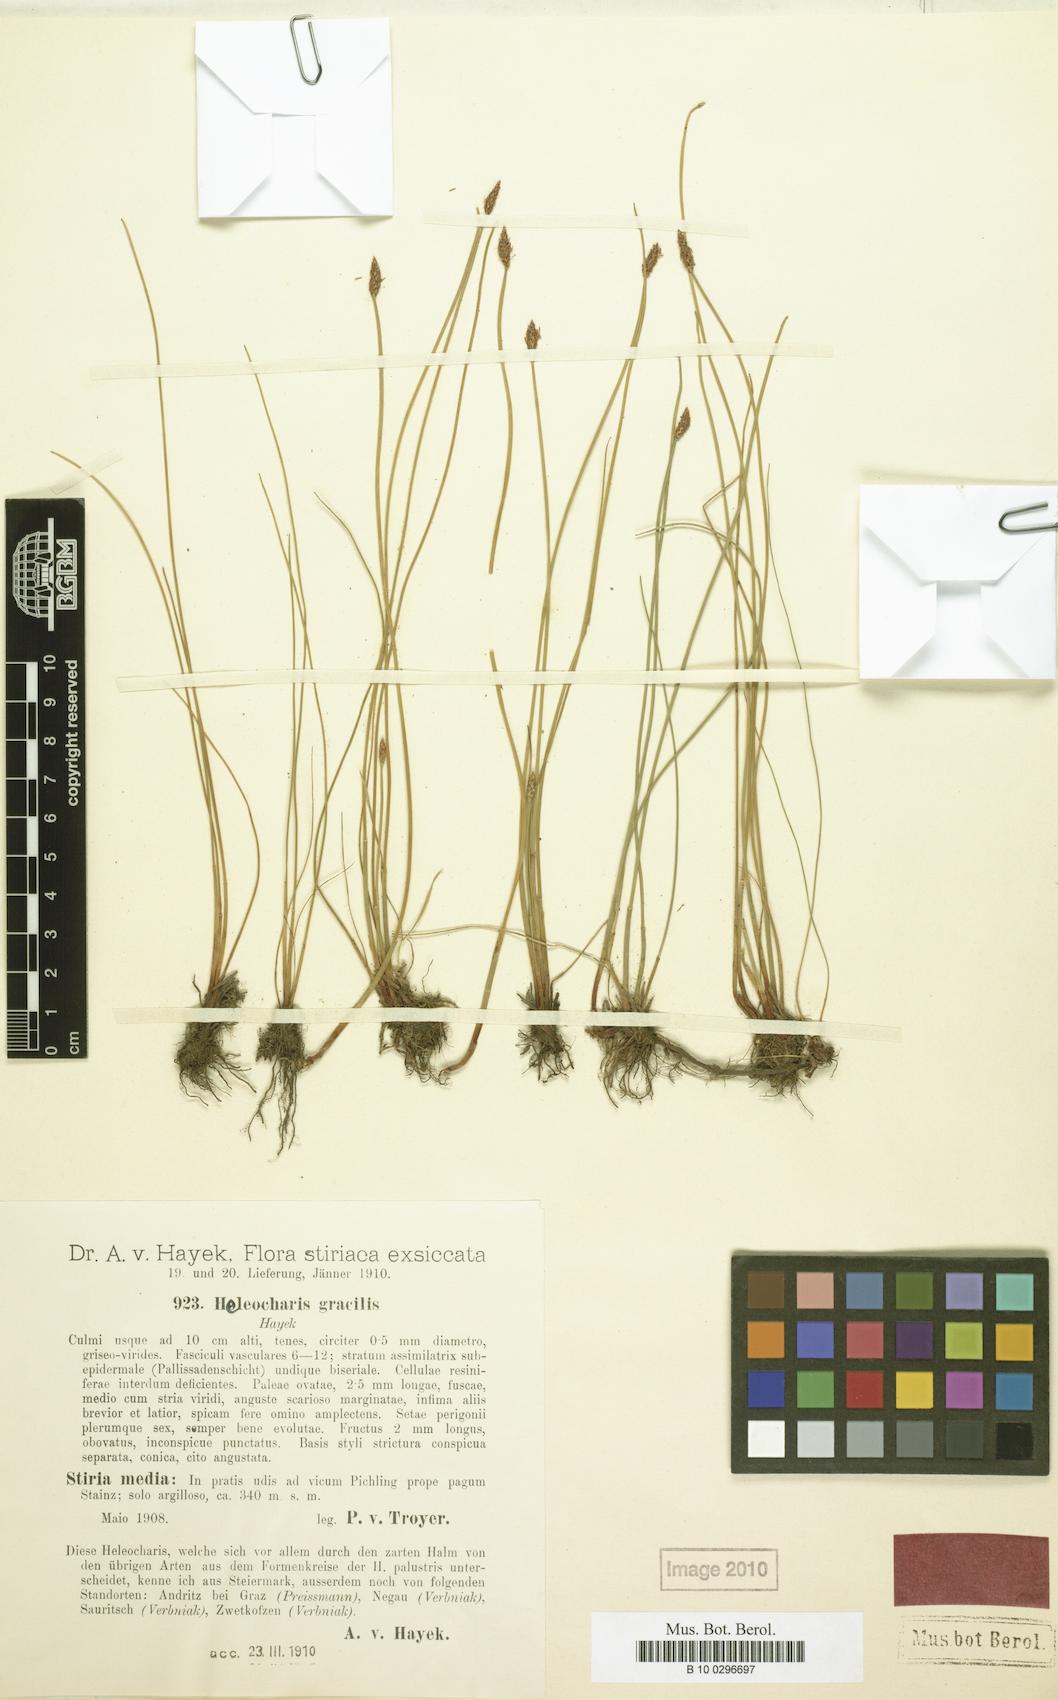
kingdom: Plantae
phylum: Tracheophyta
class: Liliopsida
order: Poales
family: Cyperaceae
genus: Eleocharis
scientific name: Eleocharis palustris
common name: Common spike-rush
